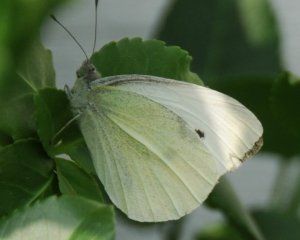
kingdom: Animalia
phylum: Arthropoda
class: Insecta
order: Lepidoptera
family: Pieridae
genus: Pieris
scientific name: Pieris rapae
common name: Cabbage White
